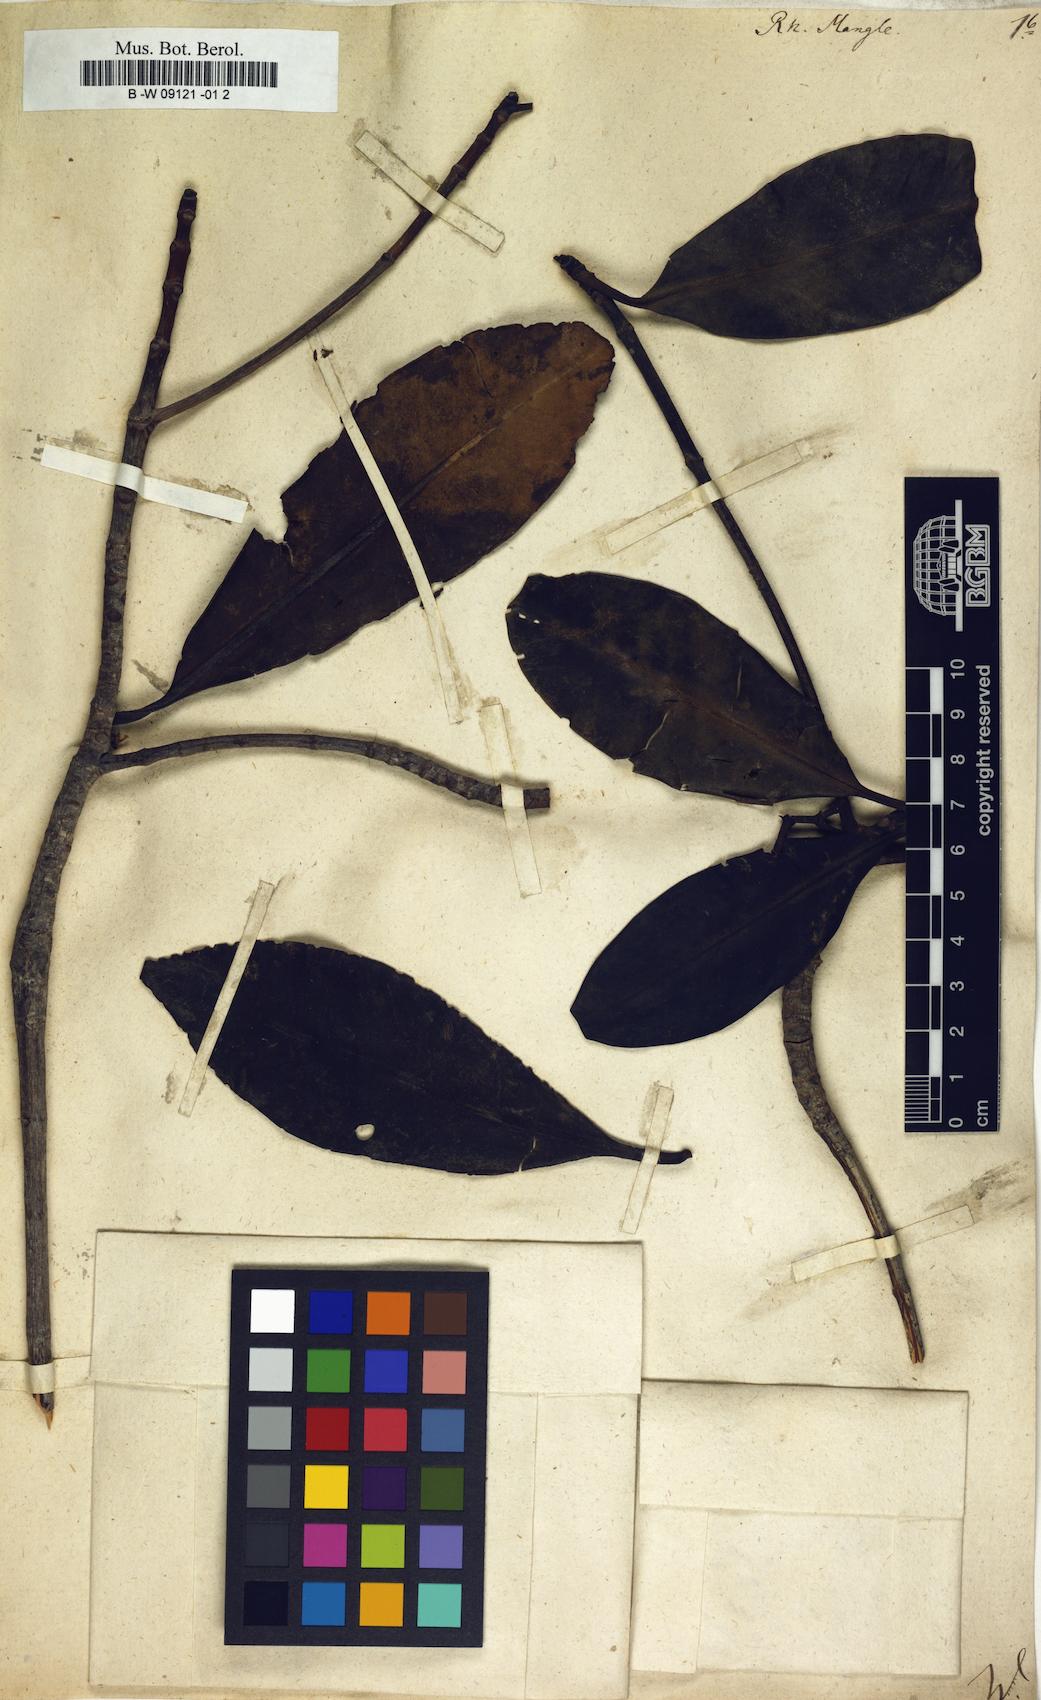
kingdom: Plantae
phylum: Tracheophyta
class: Magnoliopsida
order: Malpighiales
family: Rhizophoraceae
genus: Rhizophora
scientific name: Rhizophora mangle
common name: Red mangrove
